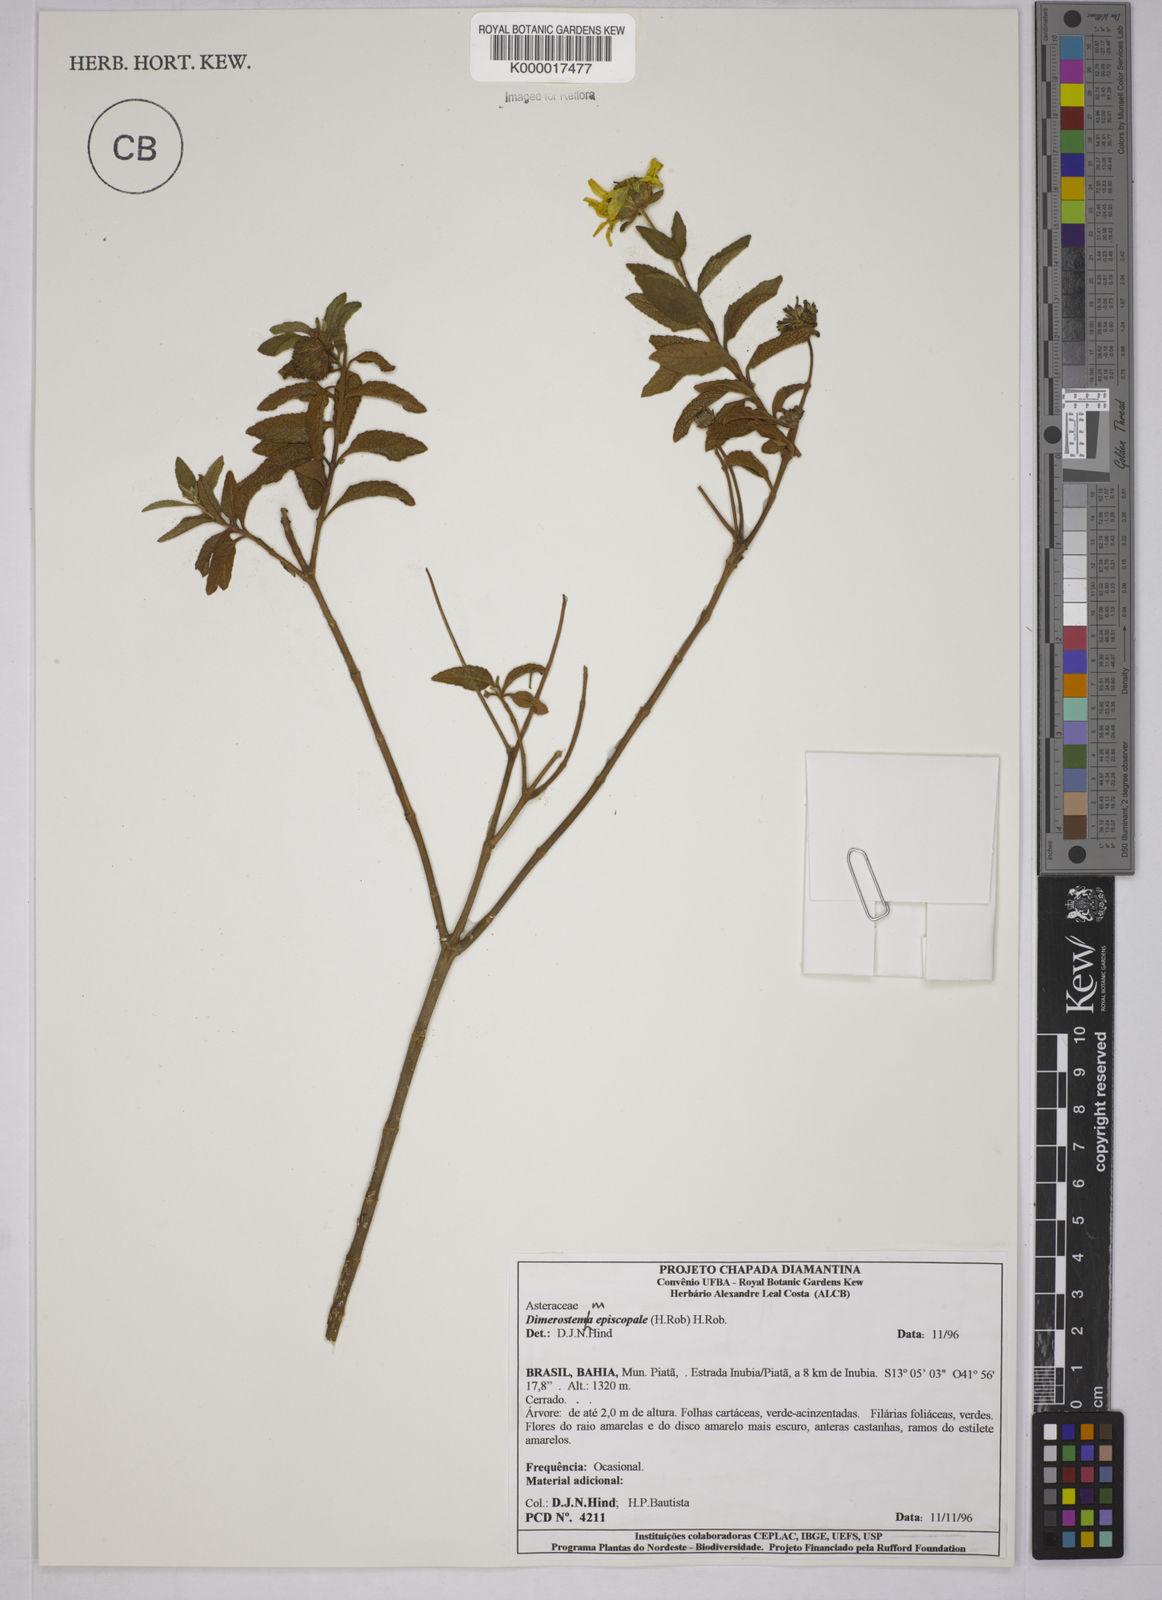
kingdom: Plantae
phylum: Tracheophyta
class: Magnoliopsida
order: Asterales
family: Asteraceae
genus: Dimerostemma
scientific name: Dimerostemma episcopale
